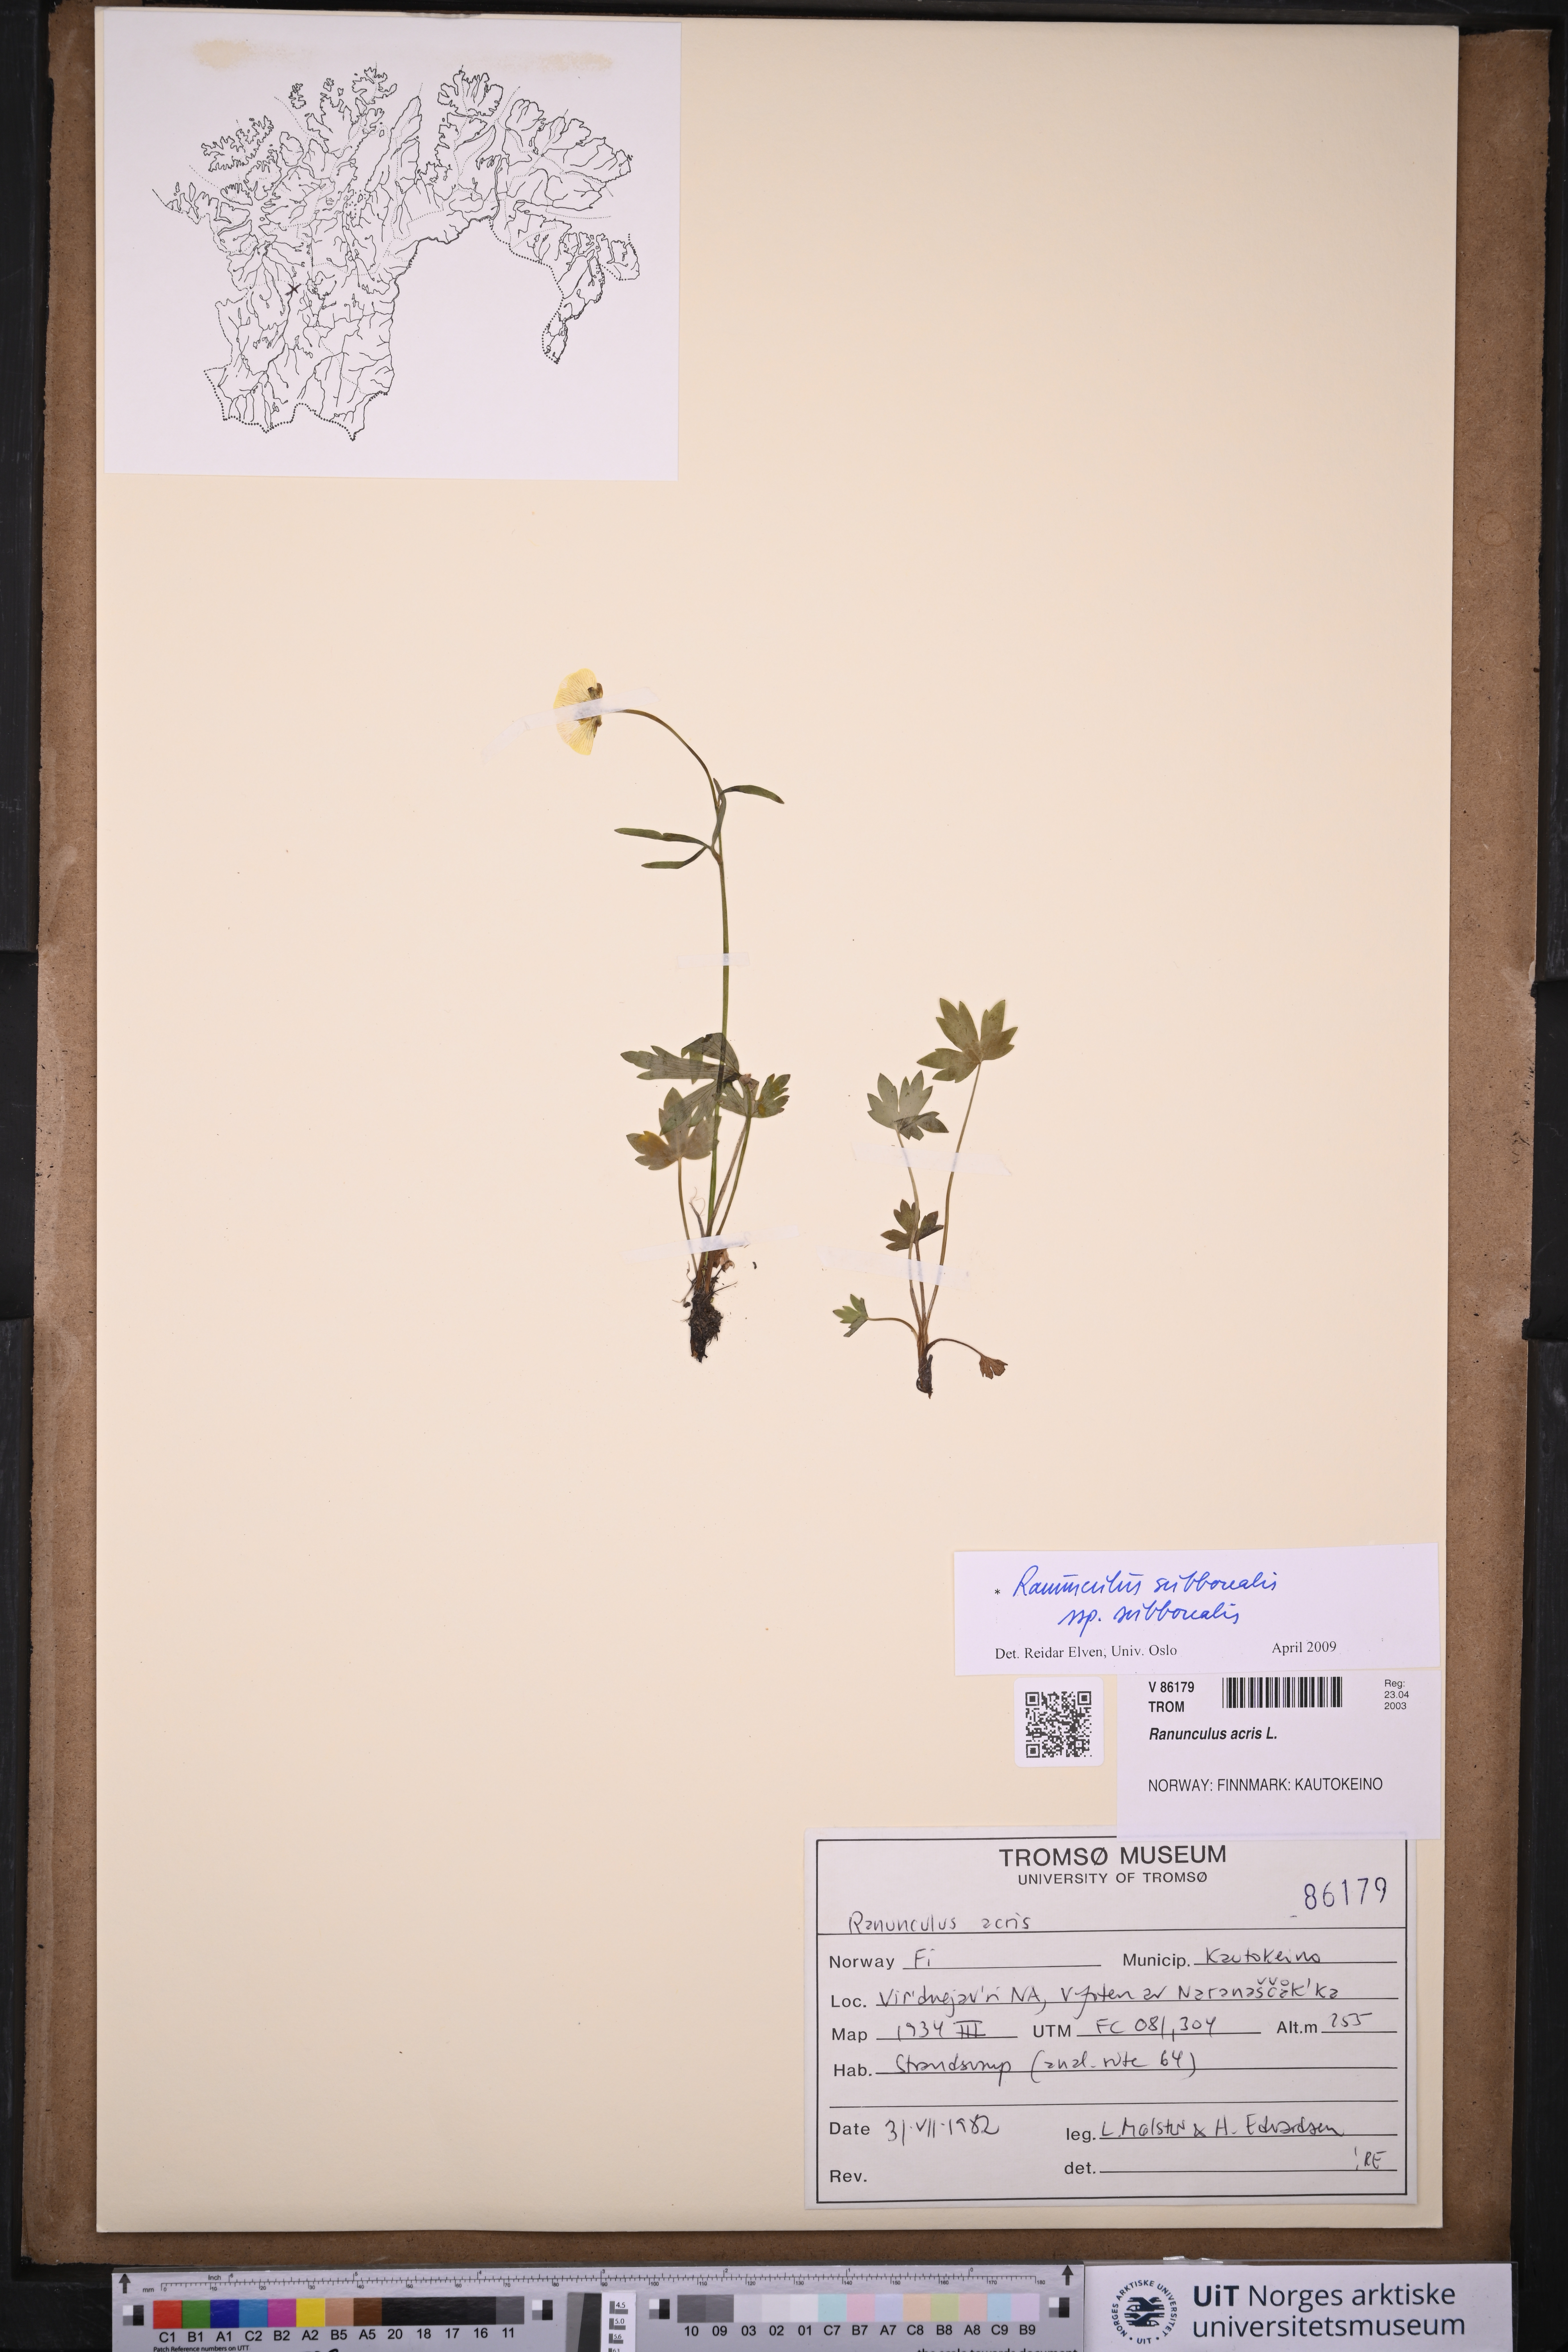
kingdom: Plantae
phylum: Tracheophyta
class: Magnoliopsida
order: Ranunculales
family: Ranunculaceae
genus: Ranunculus
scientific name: Ranunculus propinquus
